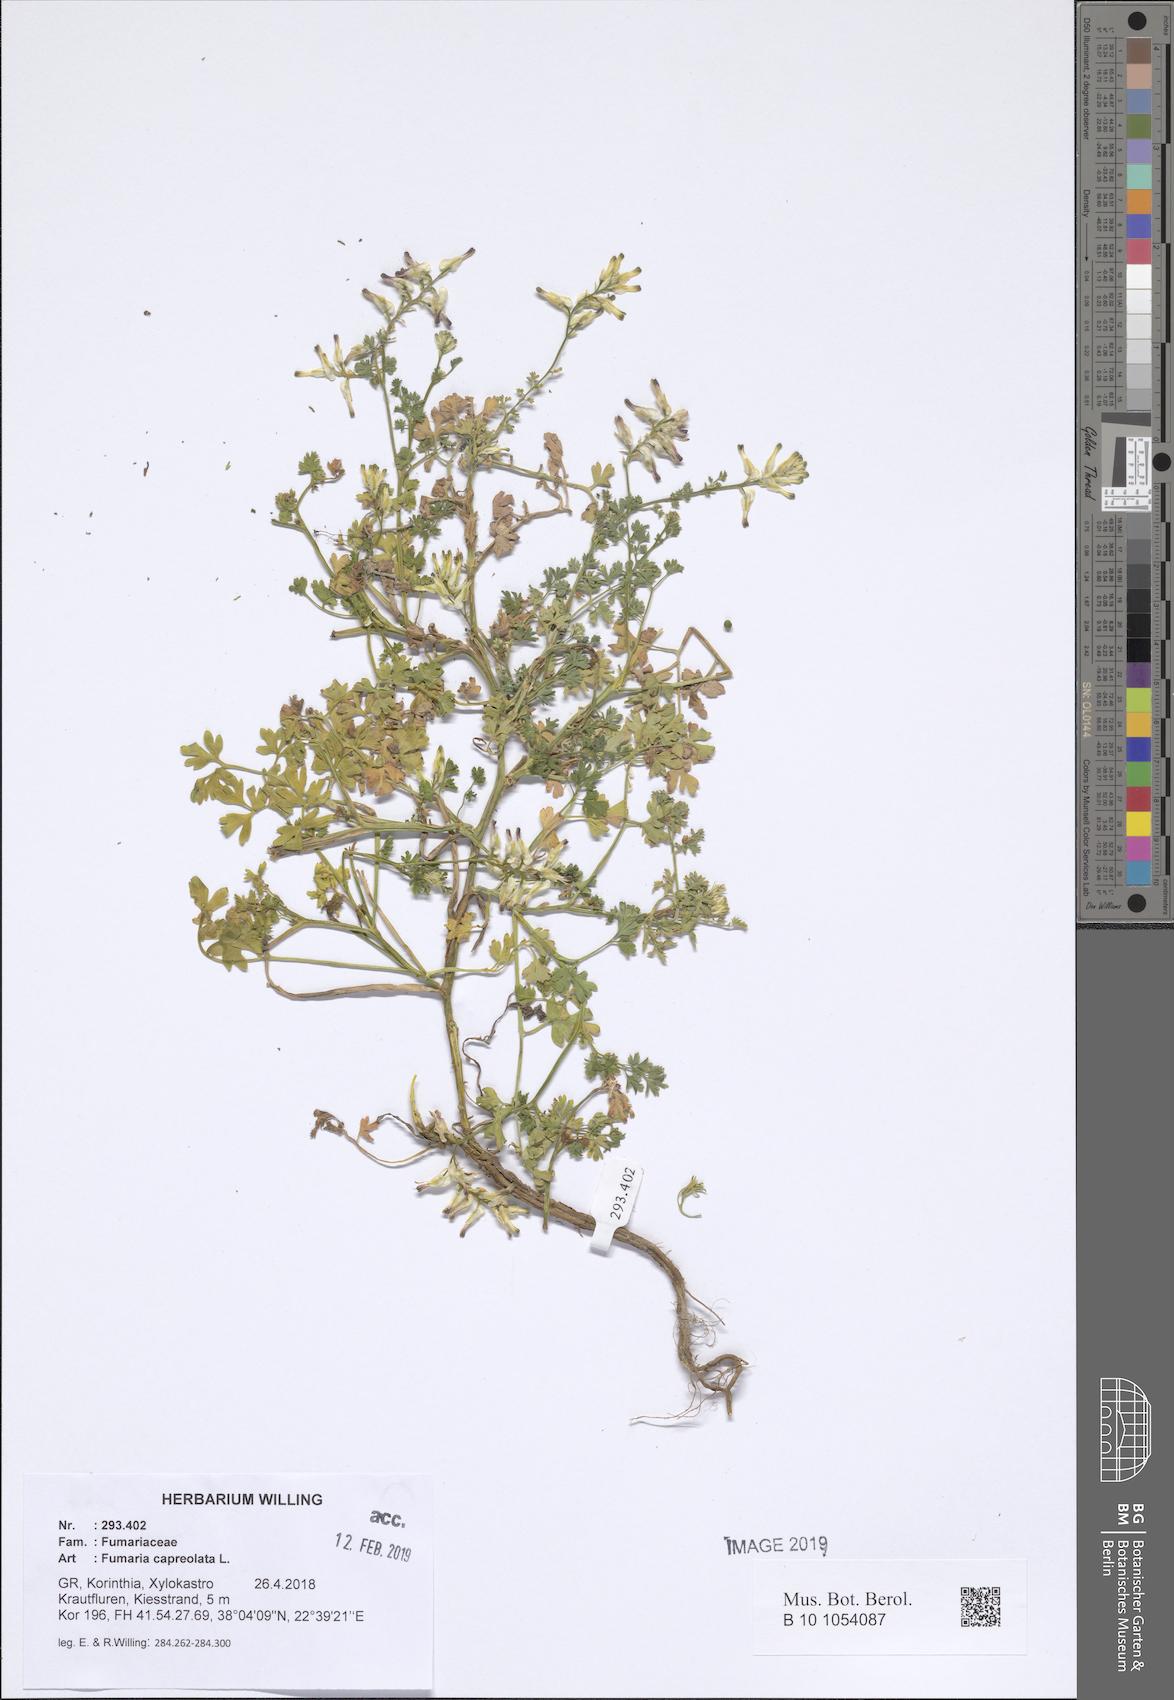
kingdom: Plantae
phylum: Tracheophyta
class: Magnoliopsida
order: Ranunculales
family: Papaveraceae
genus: Fumaria
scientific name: Fumaria capreolata
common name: White ramping-fumitory
